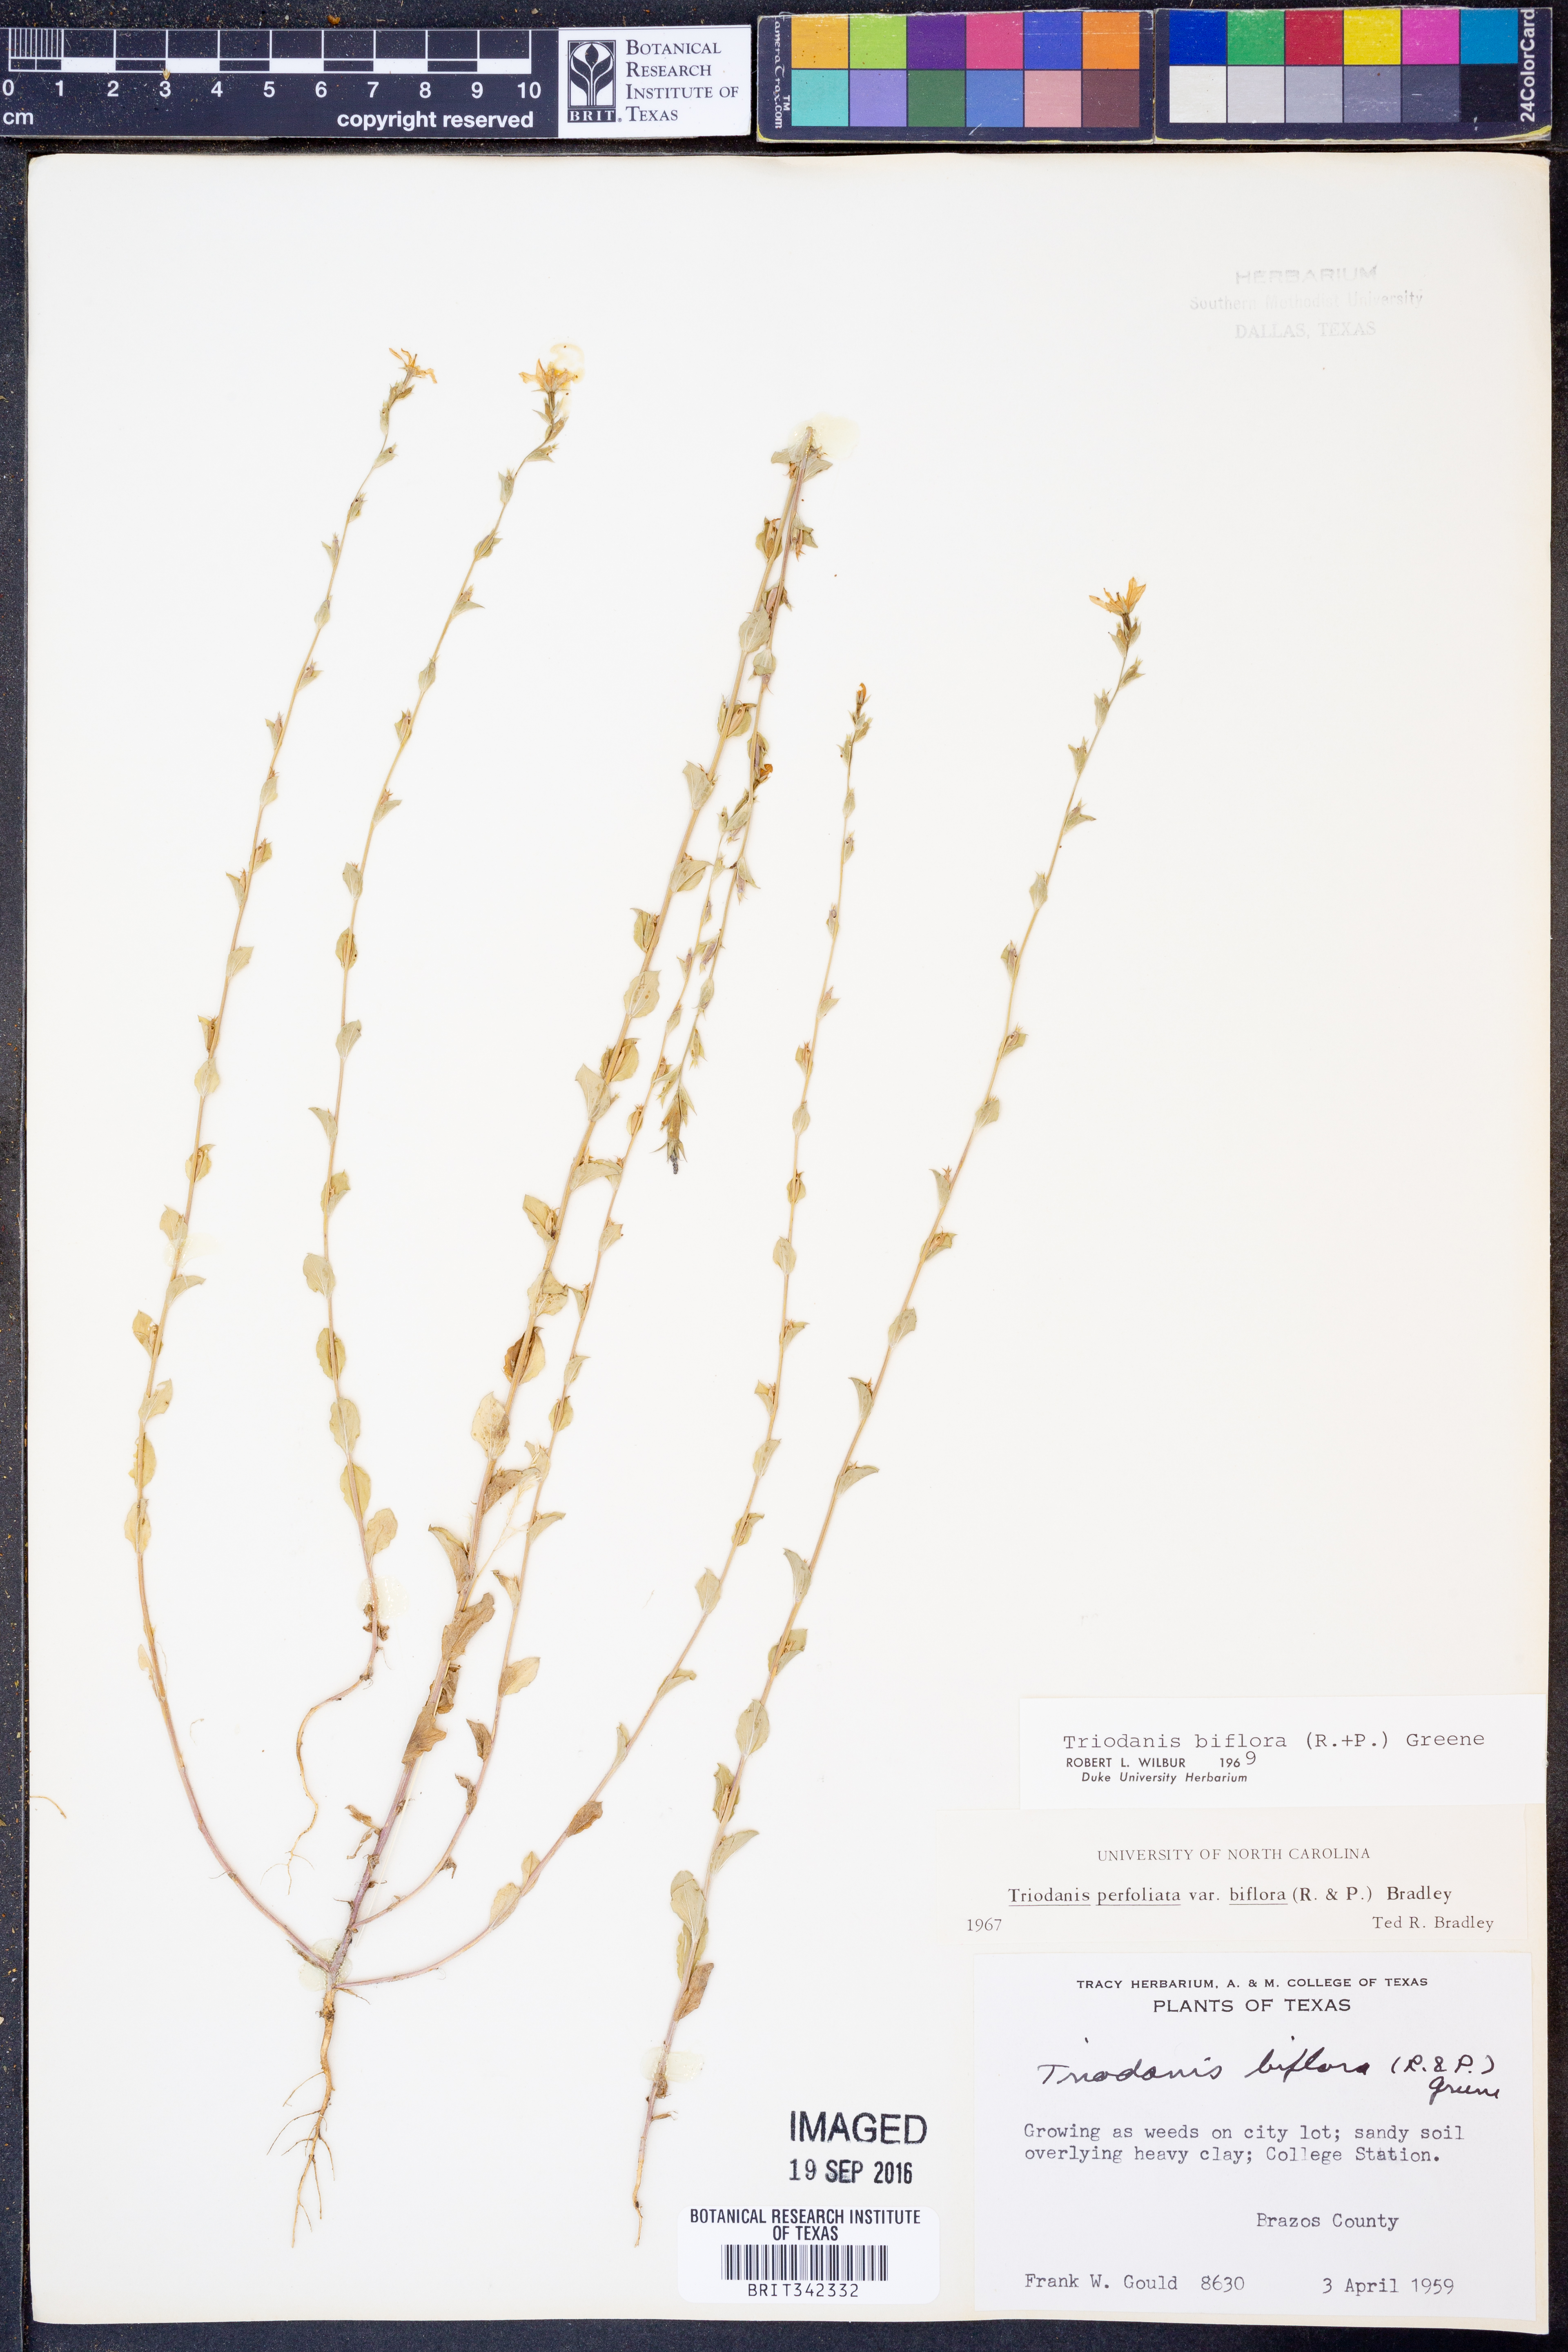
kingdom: Plantae
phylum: Tracheophyta
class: Magnoliopsida
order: Asterales
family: Campanulaceae
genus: Triodanis
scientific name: Triodanis perfoliata
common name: Clasping venus' looking-glass
